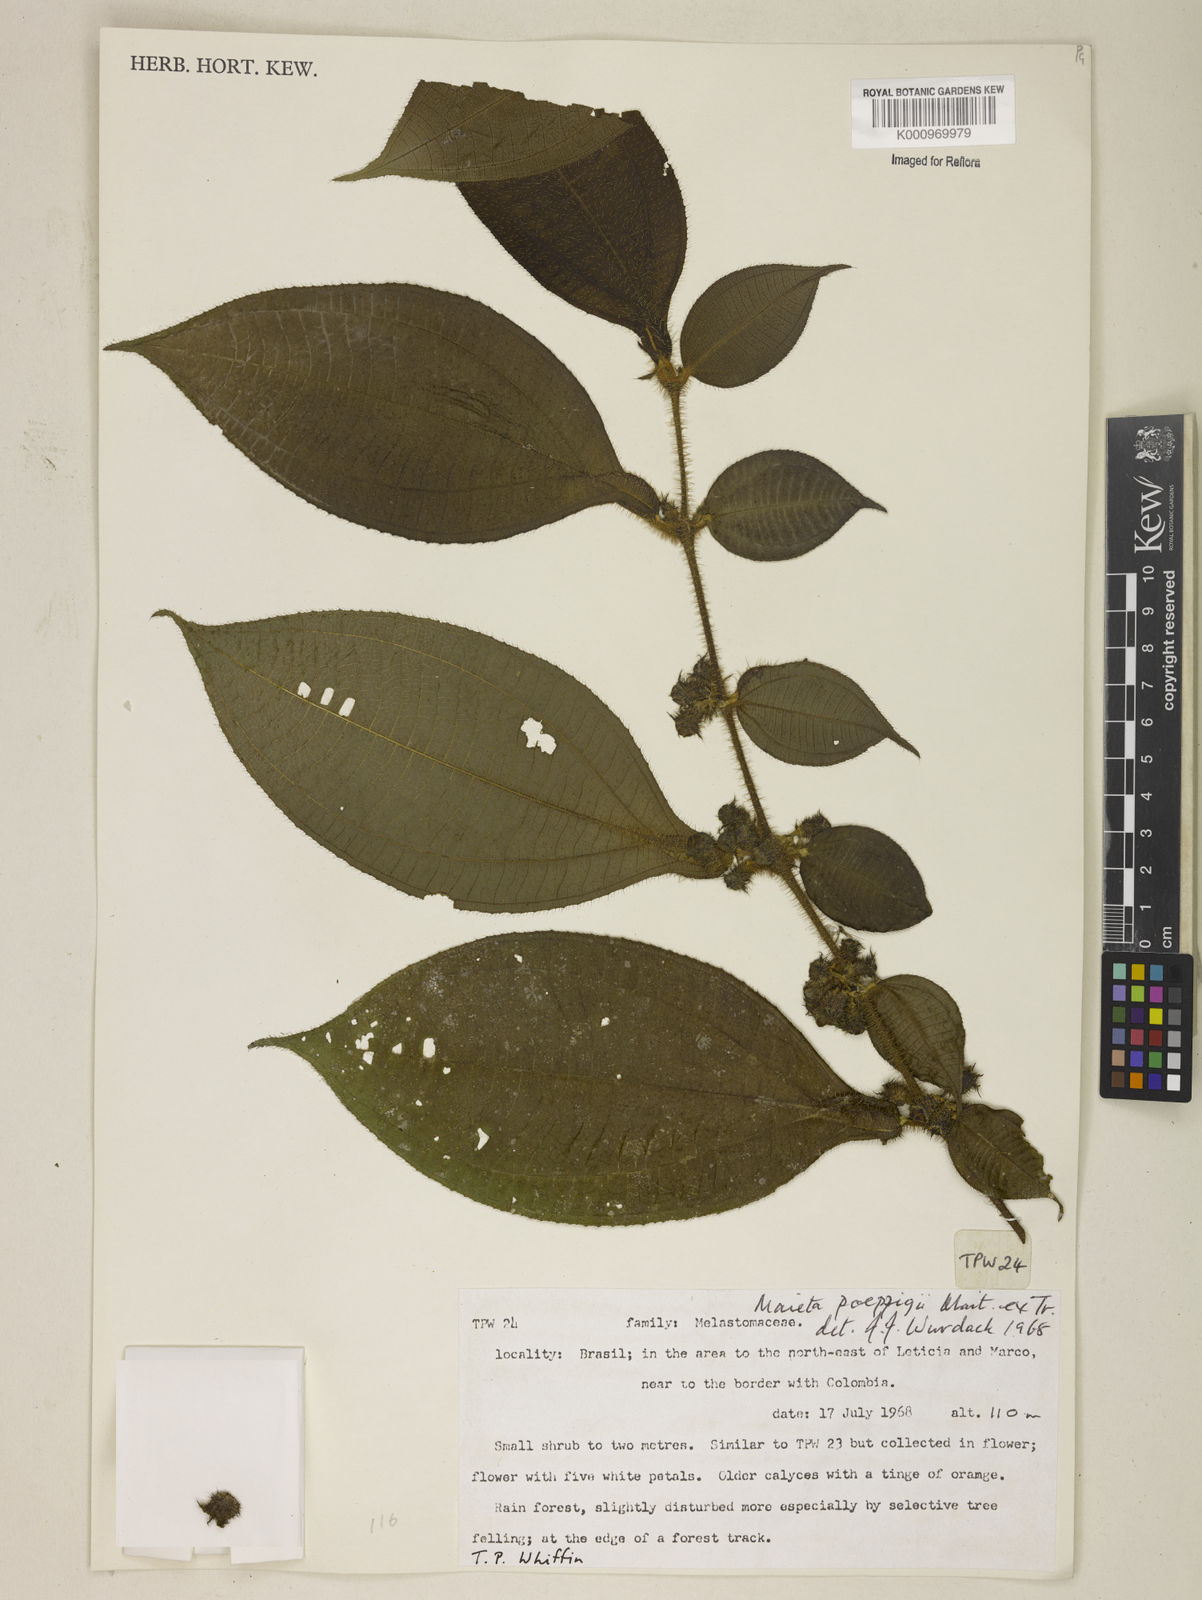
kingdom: Plantae
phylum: Tracheophyta
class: Magnoliopsida
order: Myrtales
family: Melastomataceae
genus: Miconia
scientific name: Miconia alternidomatia
